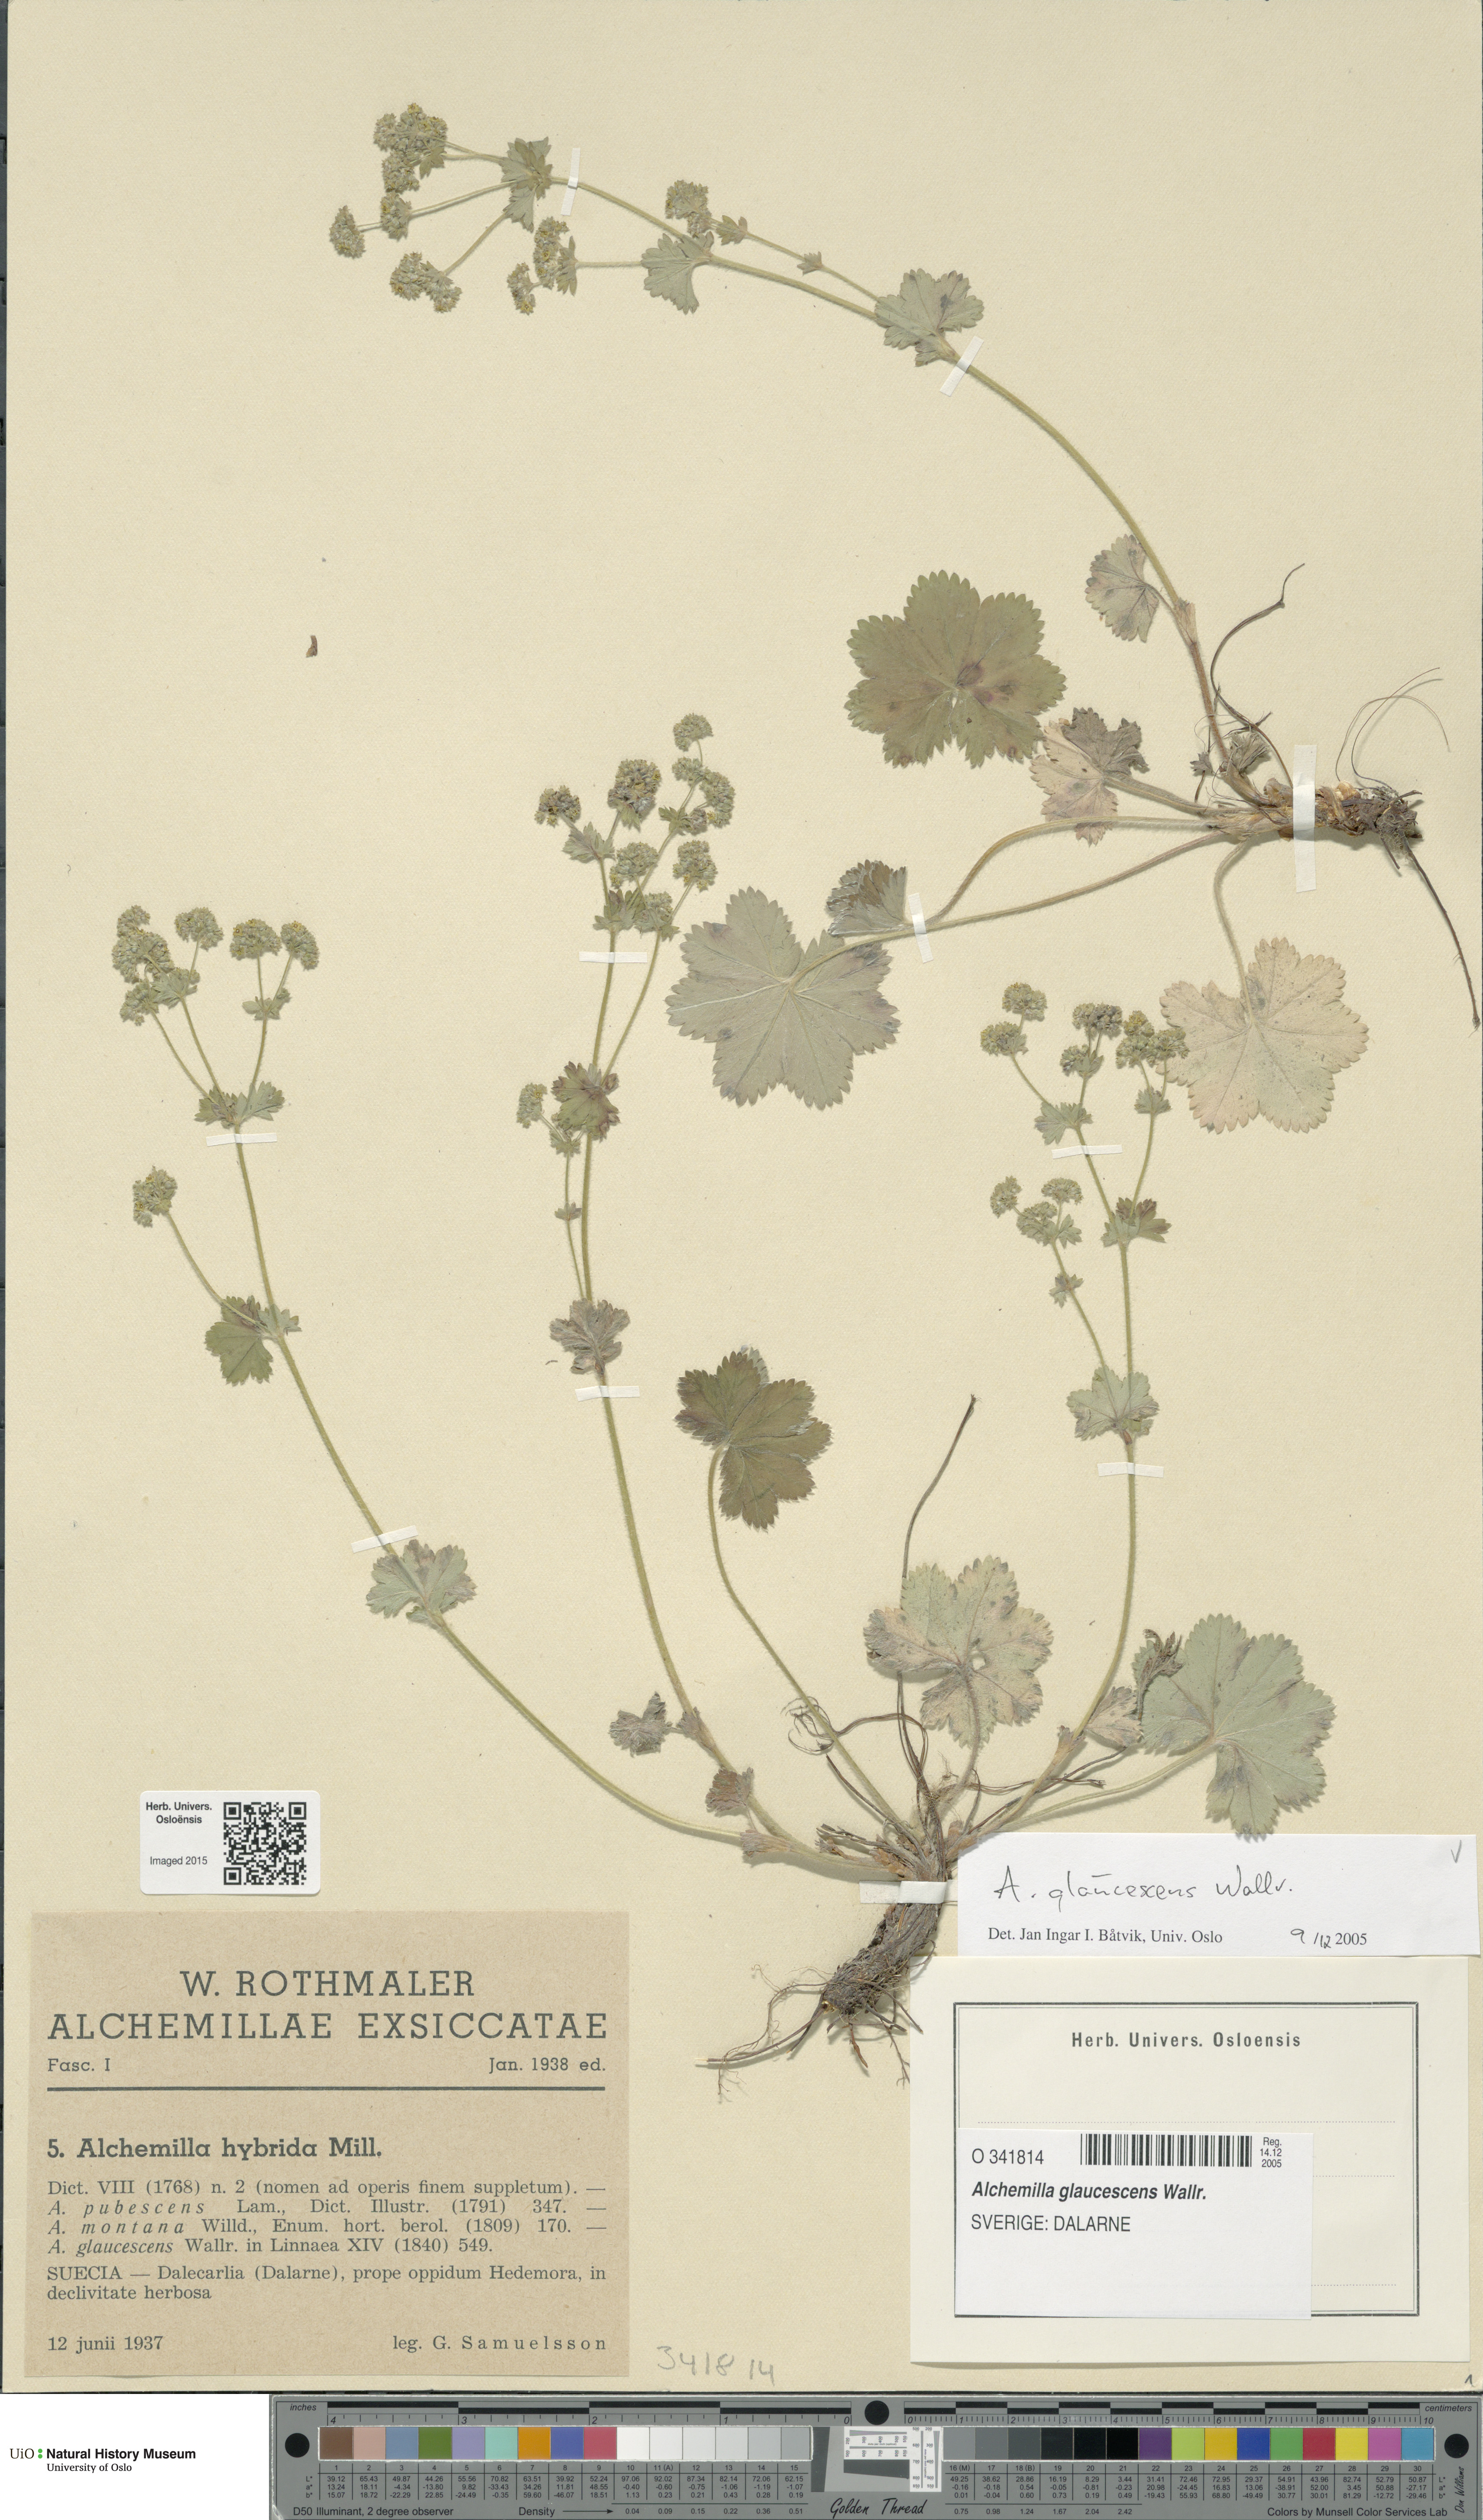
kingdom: Plantae
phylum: Tracheophyta
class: Magnoliopsida
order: Rosales
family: Rosaceae
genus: Alchemilla
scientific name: Alchemilla glaucescens
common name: Silky lady's mantle
